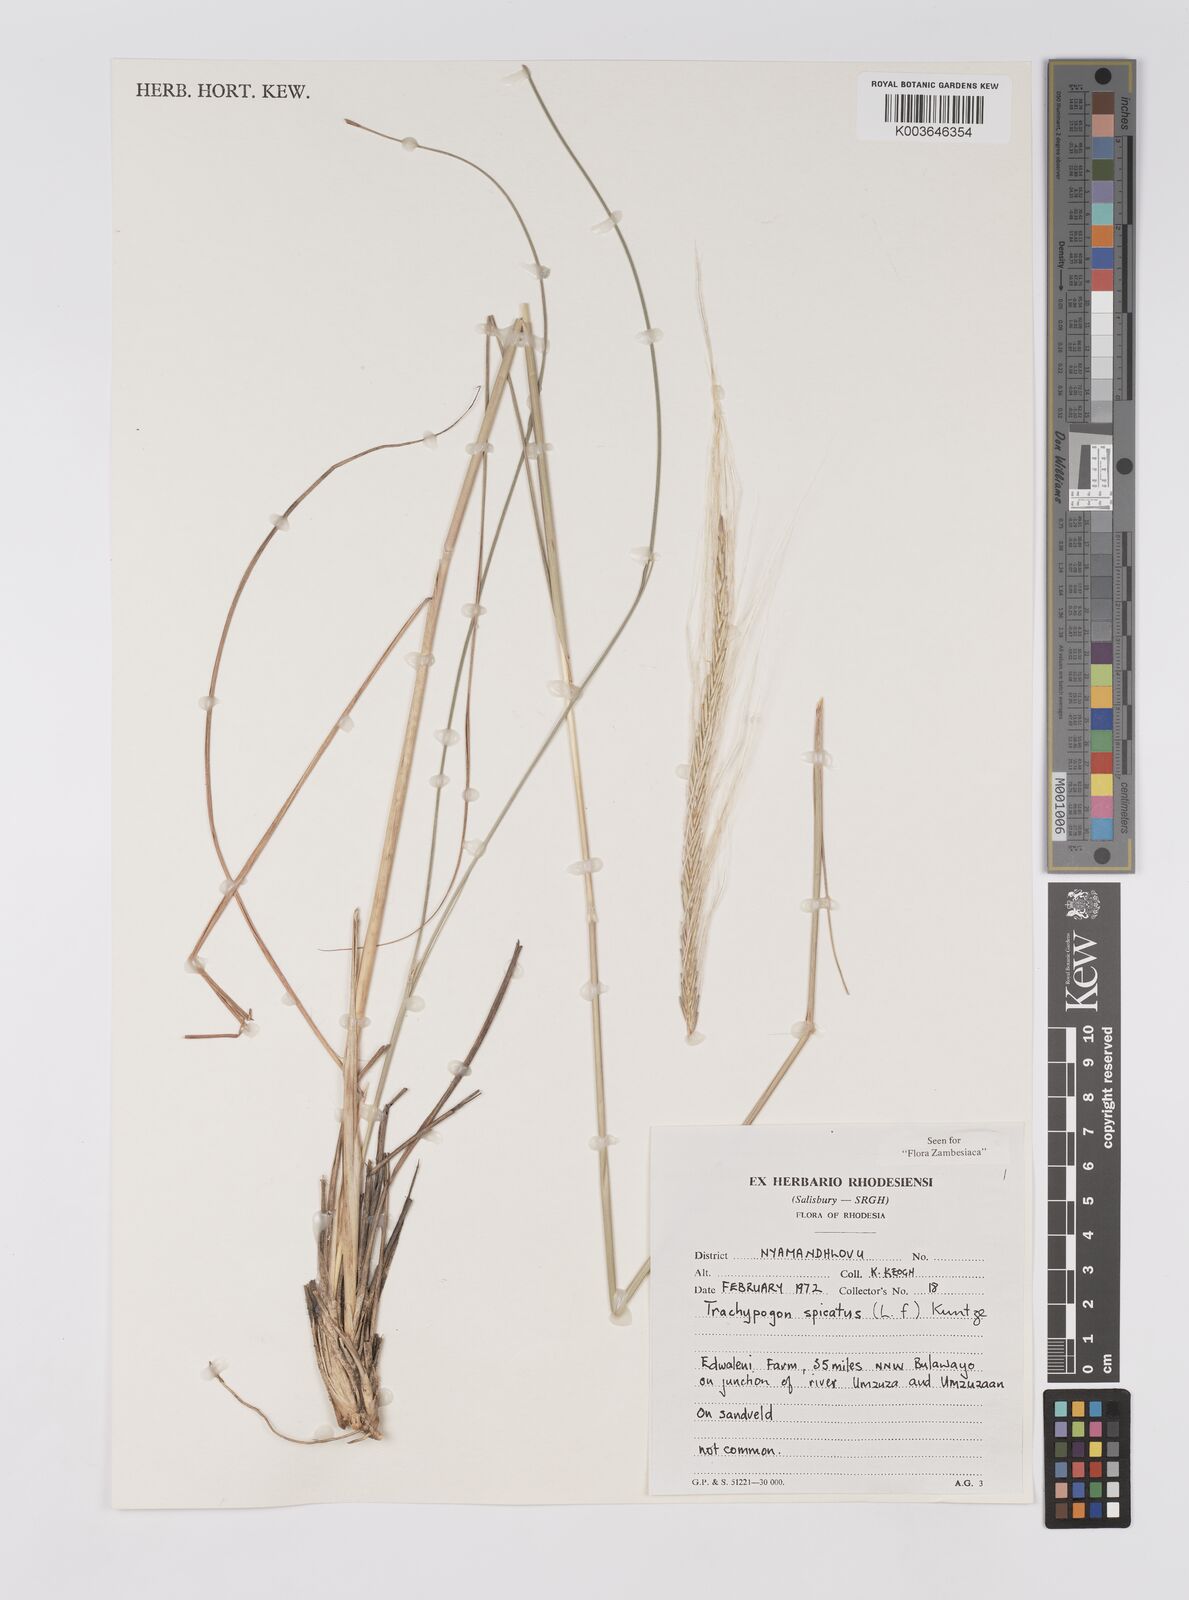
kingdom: Plantae
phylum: Tracheophyta
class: Liliopsida
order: Poales
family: Poaceae
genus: Trachypogon
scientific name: Trachypogon spicatus
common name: Crinkle-awn
